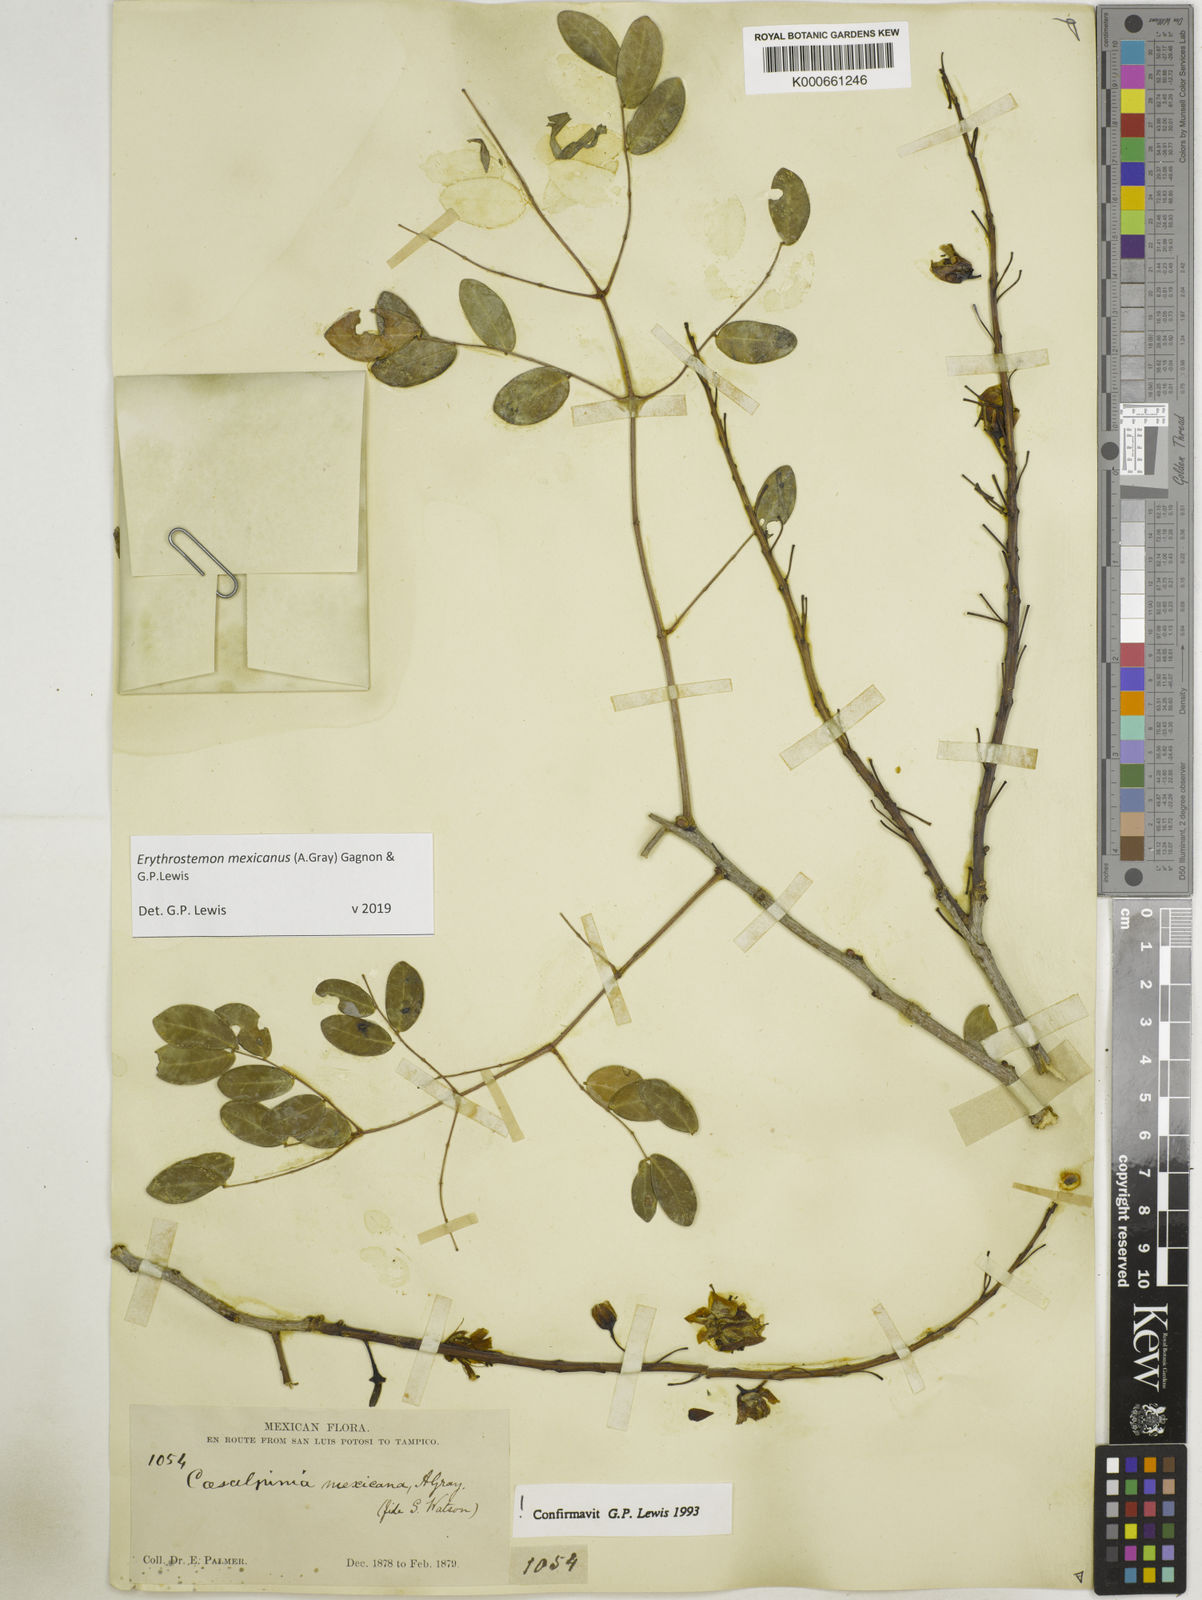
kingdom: Plantae
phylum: Tracheophyta
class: Magnoliopsida
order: Fabales
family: Fabaceae
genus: Erythrostemon
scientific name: Erythrostemon mexicanus
